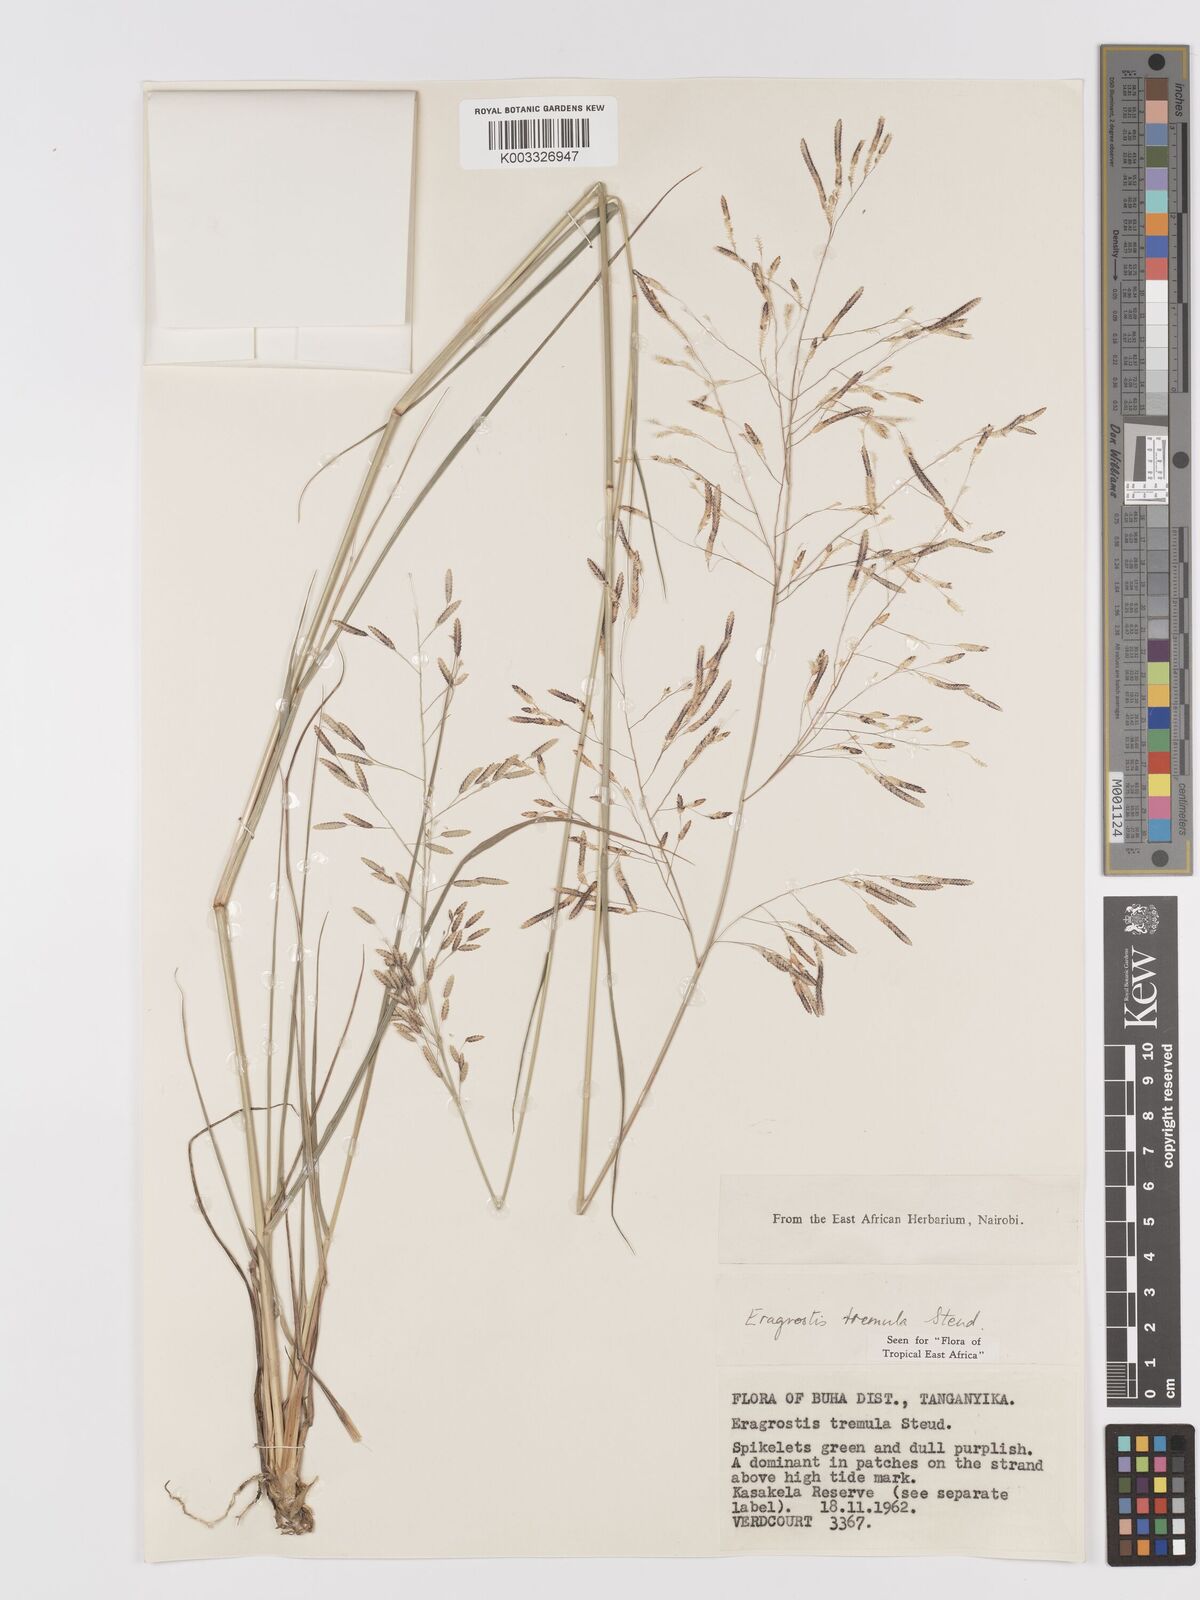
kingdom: Plantae
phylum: Tracheophyta
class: Liliopsida
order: Poales
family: Poaceae
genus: Eragrostis
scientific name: Eragrostis tremula
